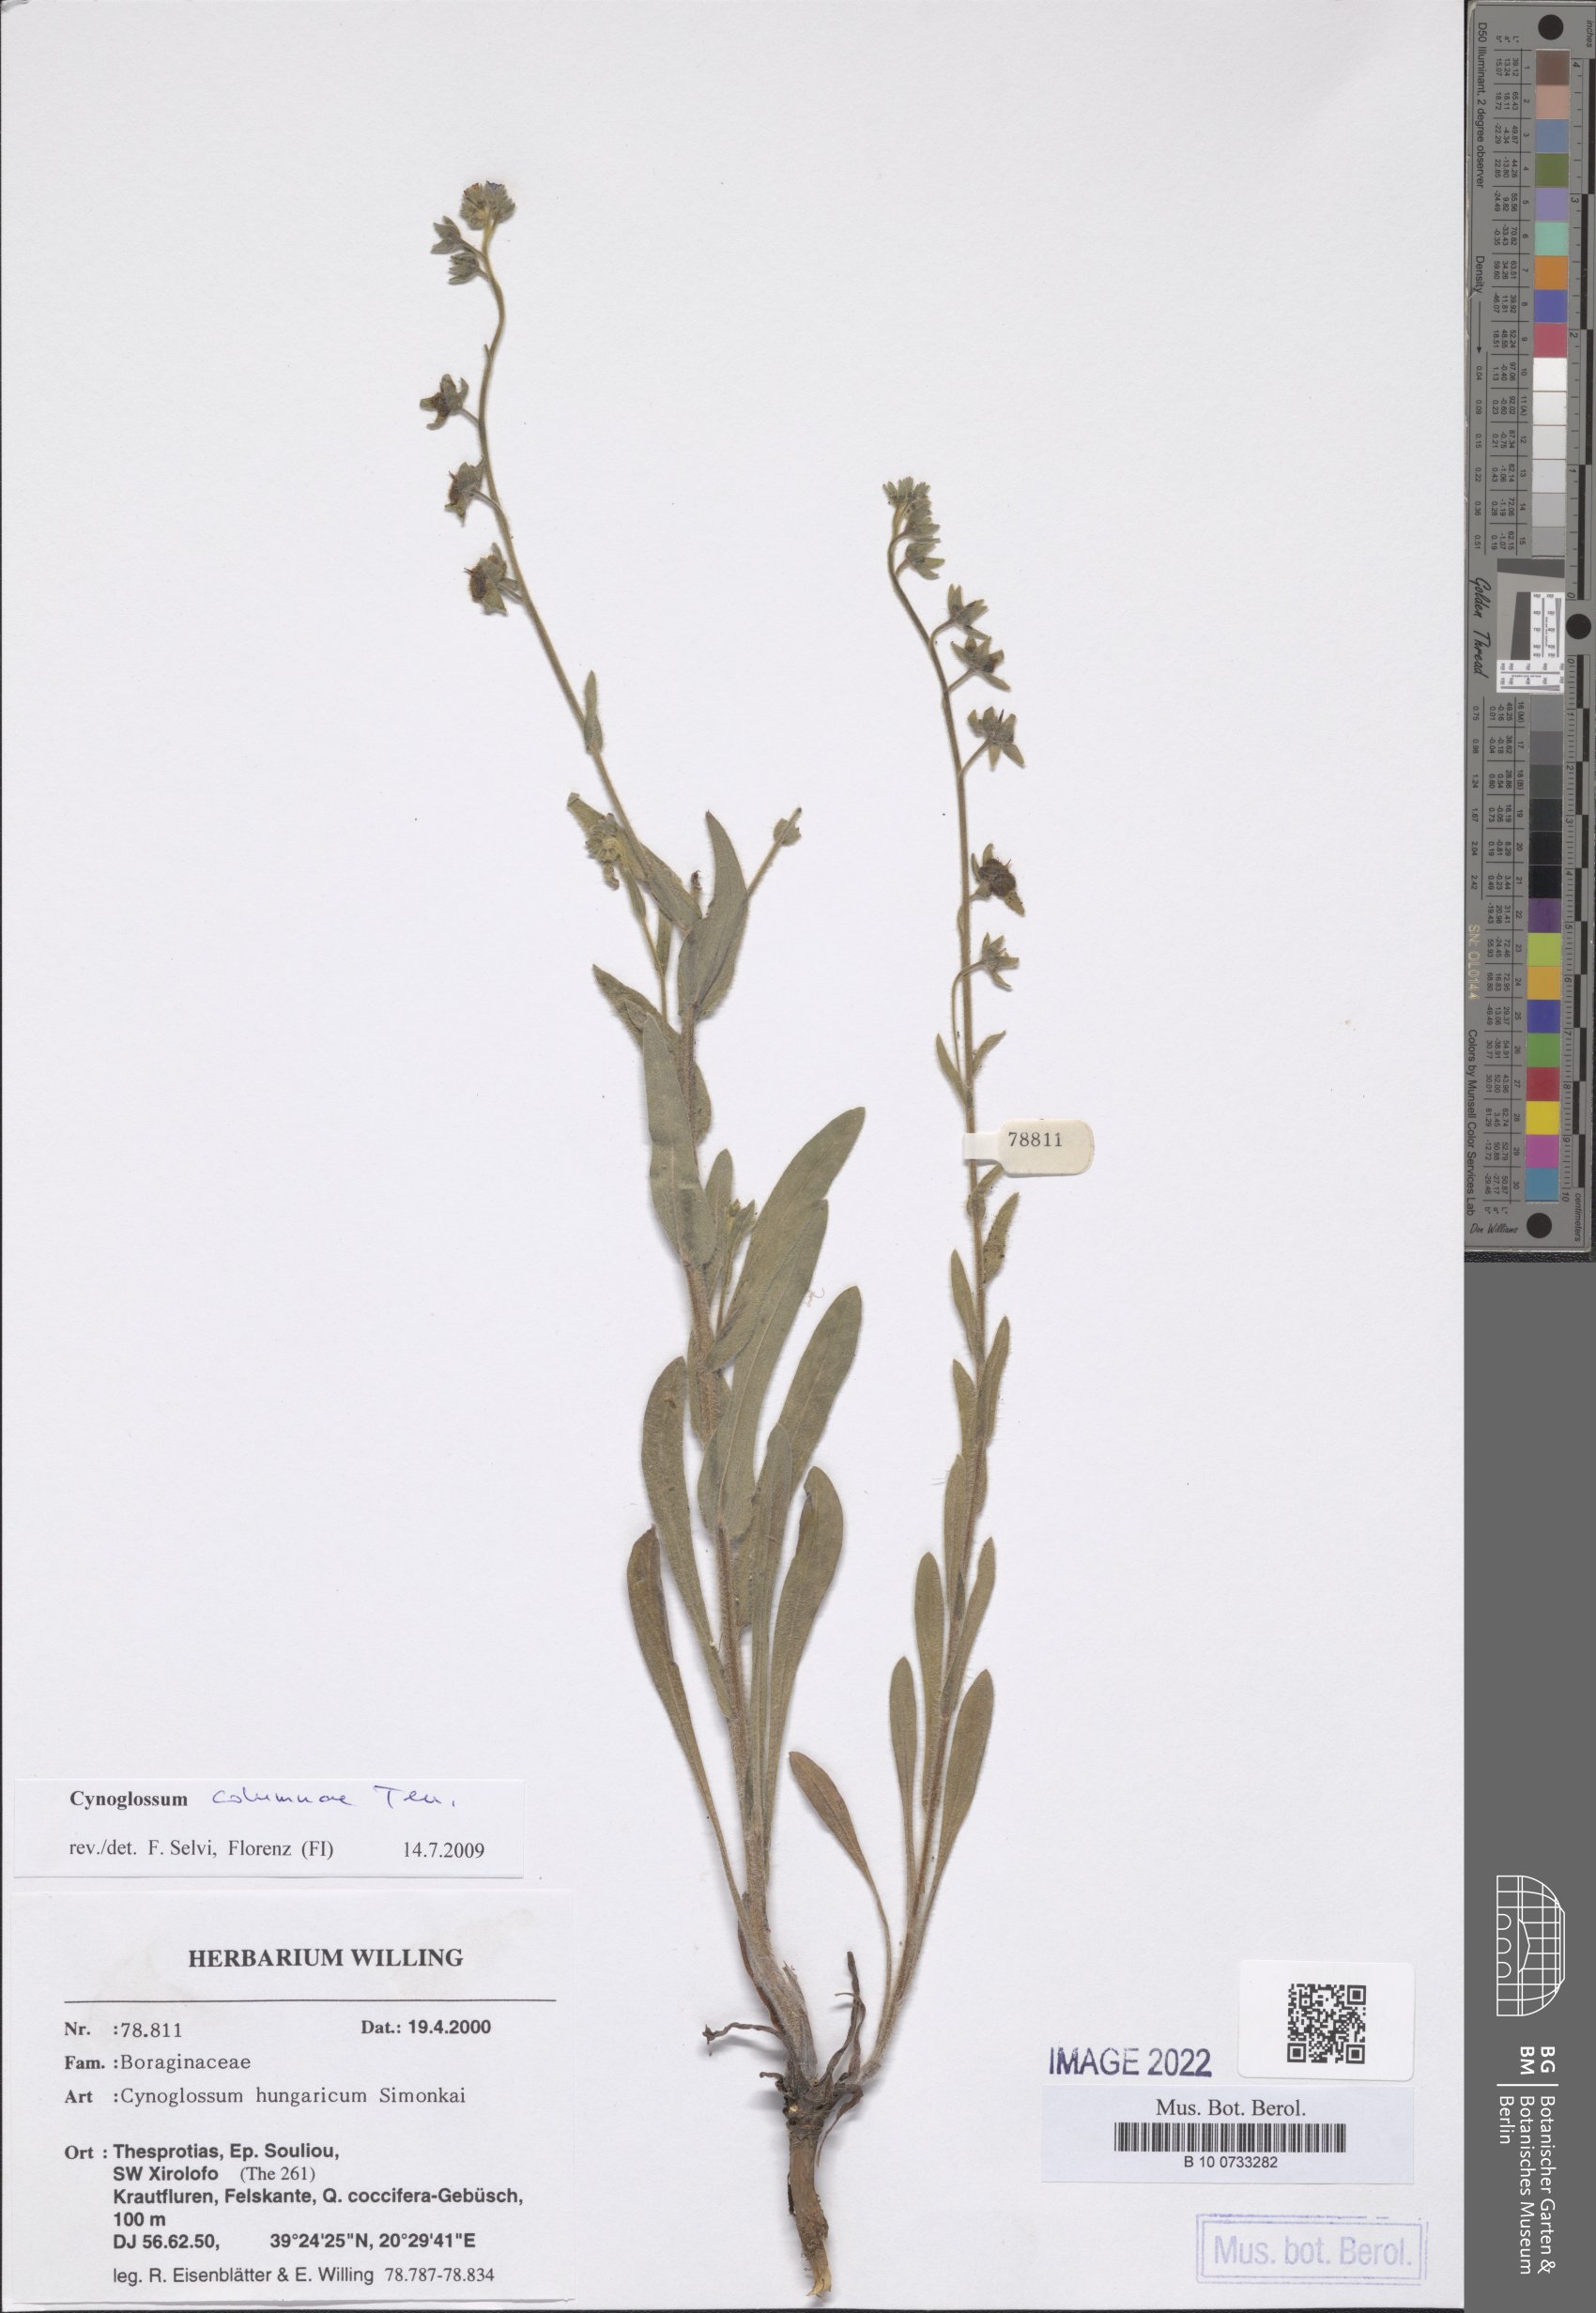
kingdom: Plantae
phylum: Tracheophyta
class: Magnoliopsida
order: Boraginales
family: Boraginaceae
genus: Rindera
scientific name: Rindera columnae
